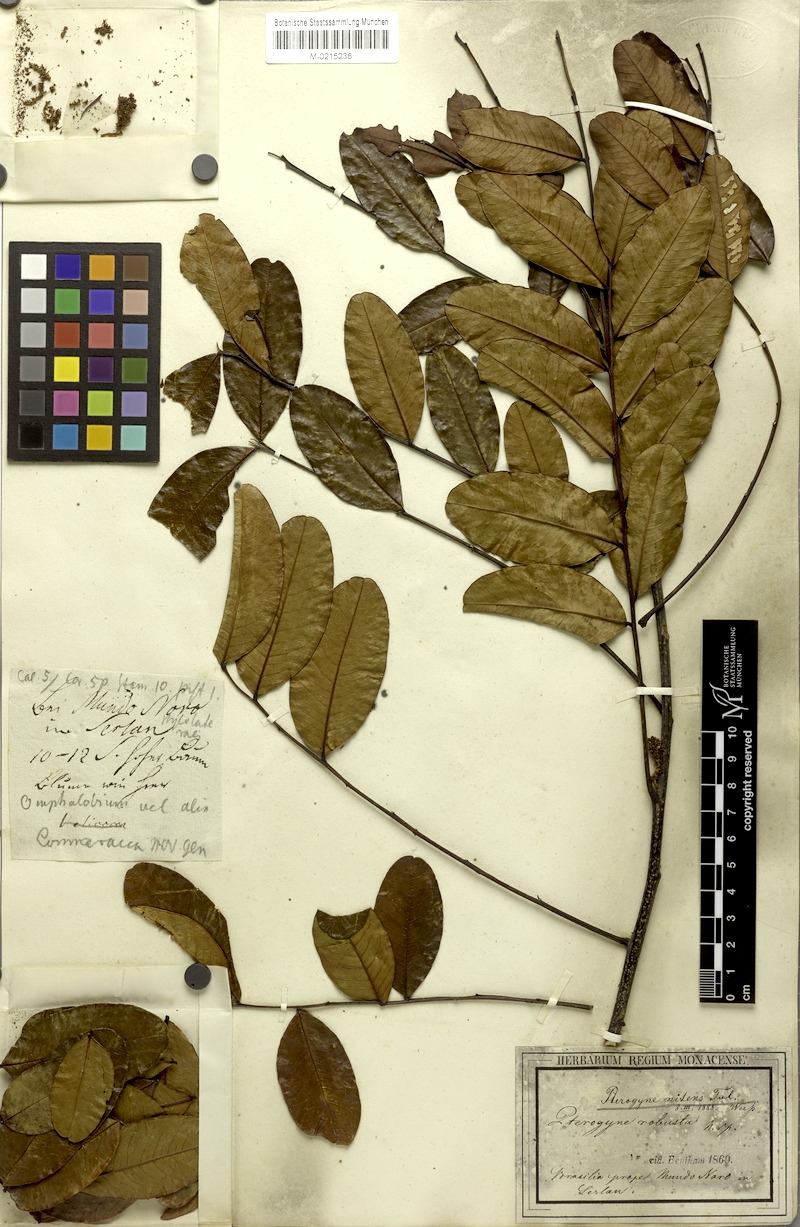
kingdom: Plantae
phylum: Tracheophyta
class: Magnoliopsida
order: Fabales
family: Fabaceae
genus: Pterogyne
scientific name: Pterogyne nitens
